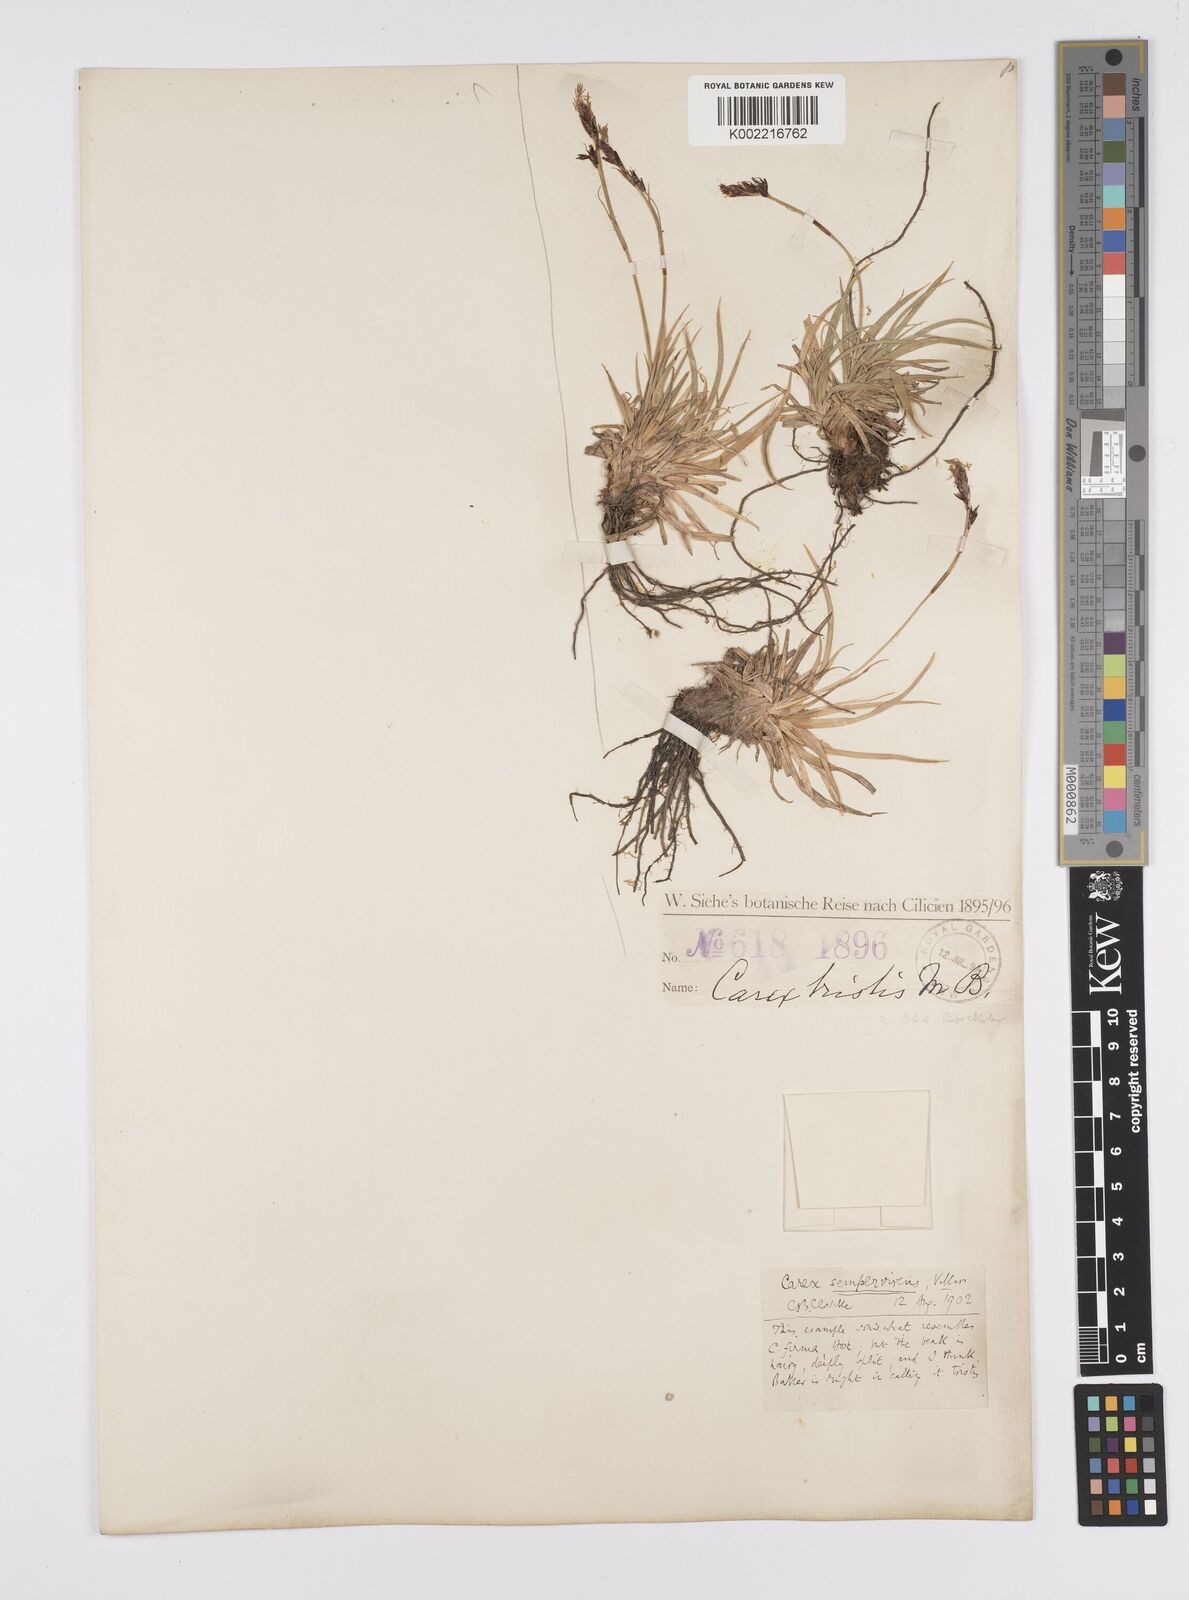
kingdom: Plantae
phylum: Tracheophyta
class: Liliopsida
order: Poales
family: Cyperaceae
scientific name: Cyperaceae
